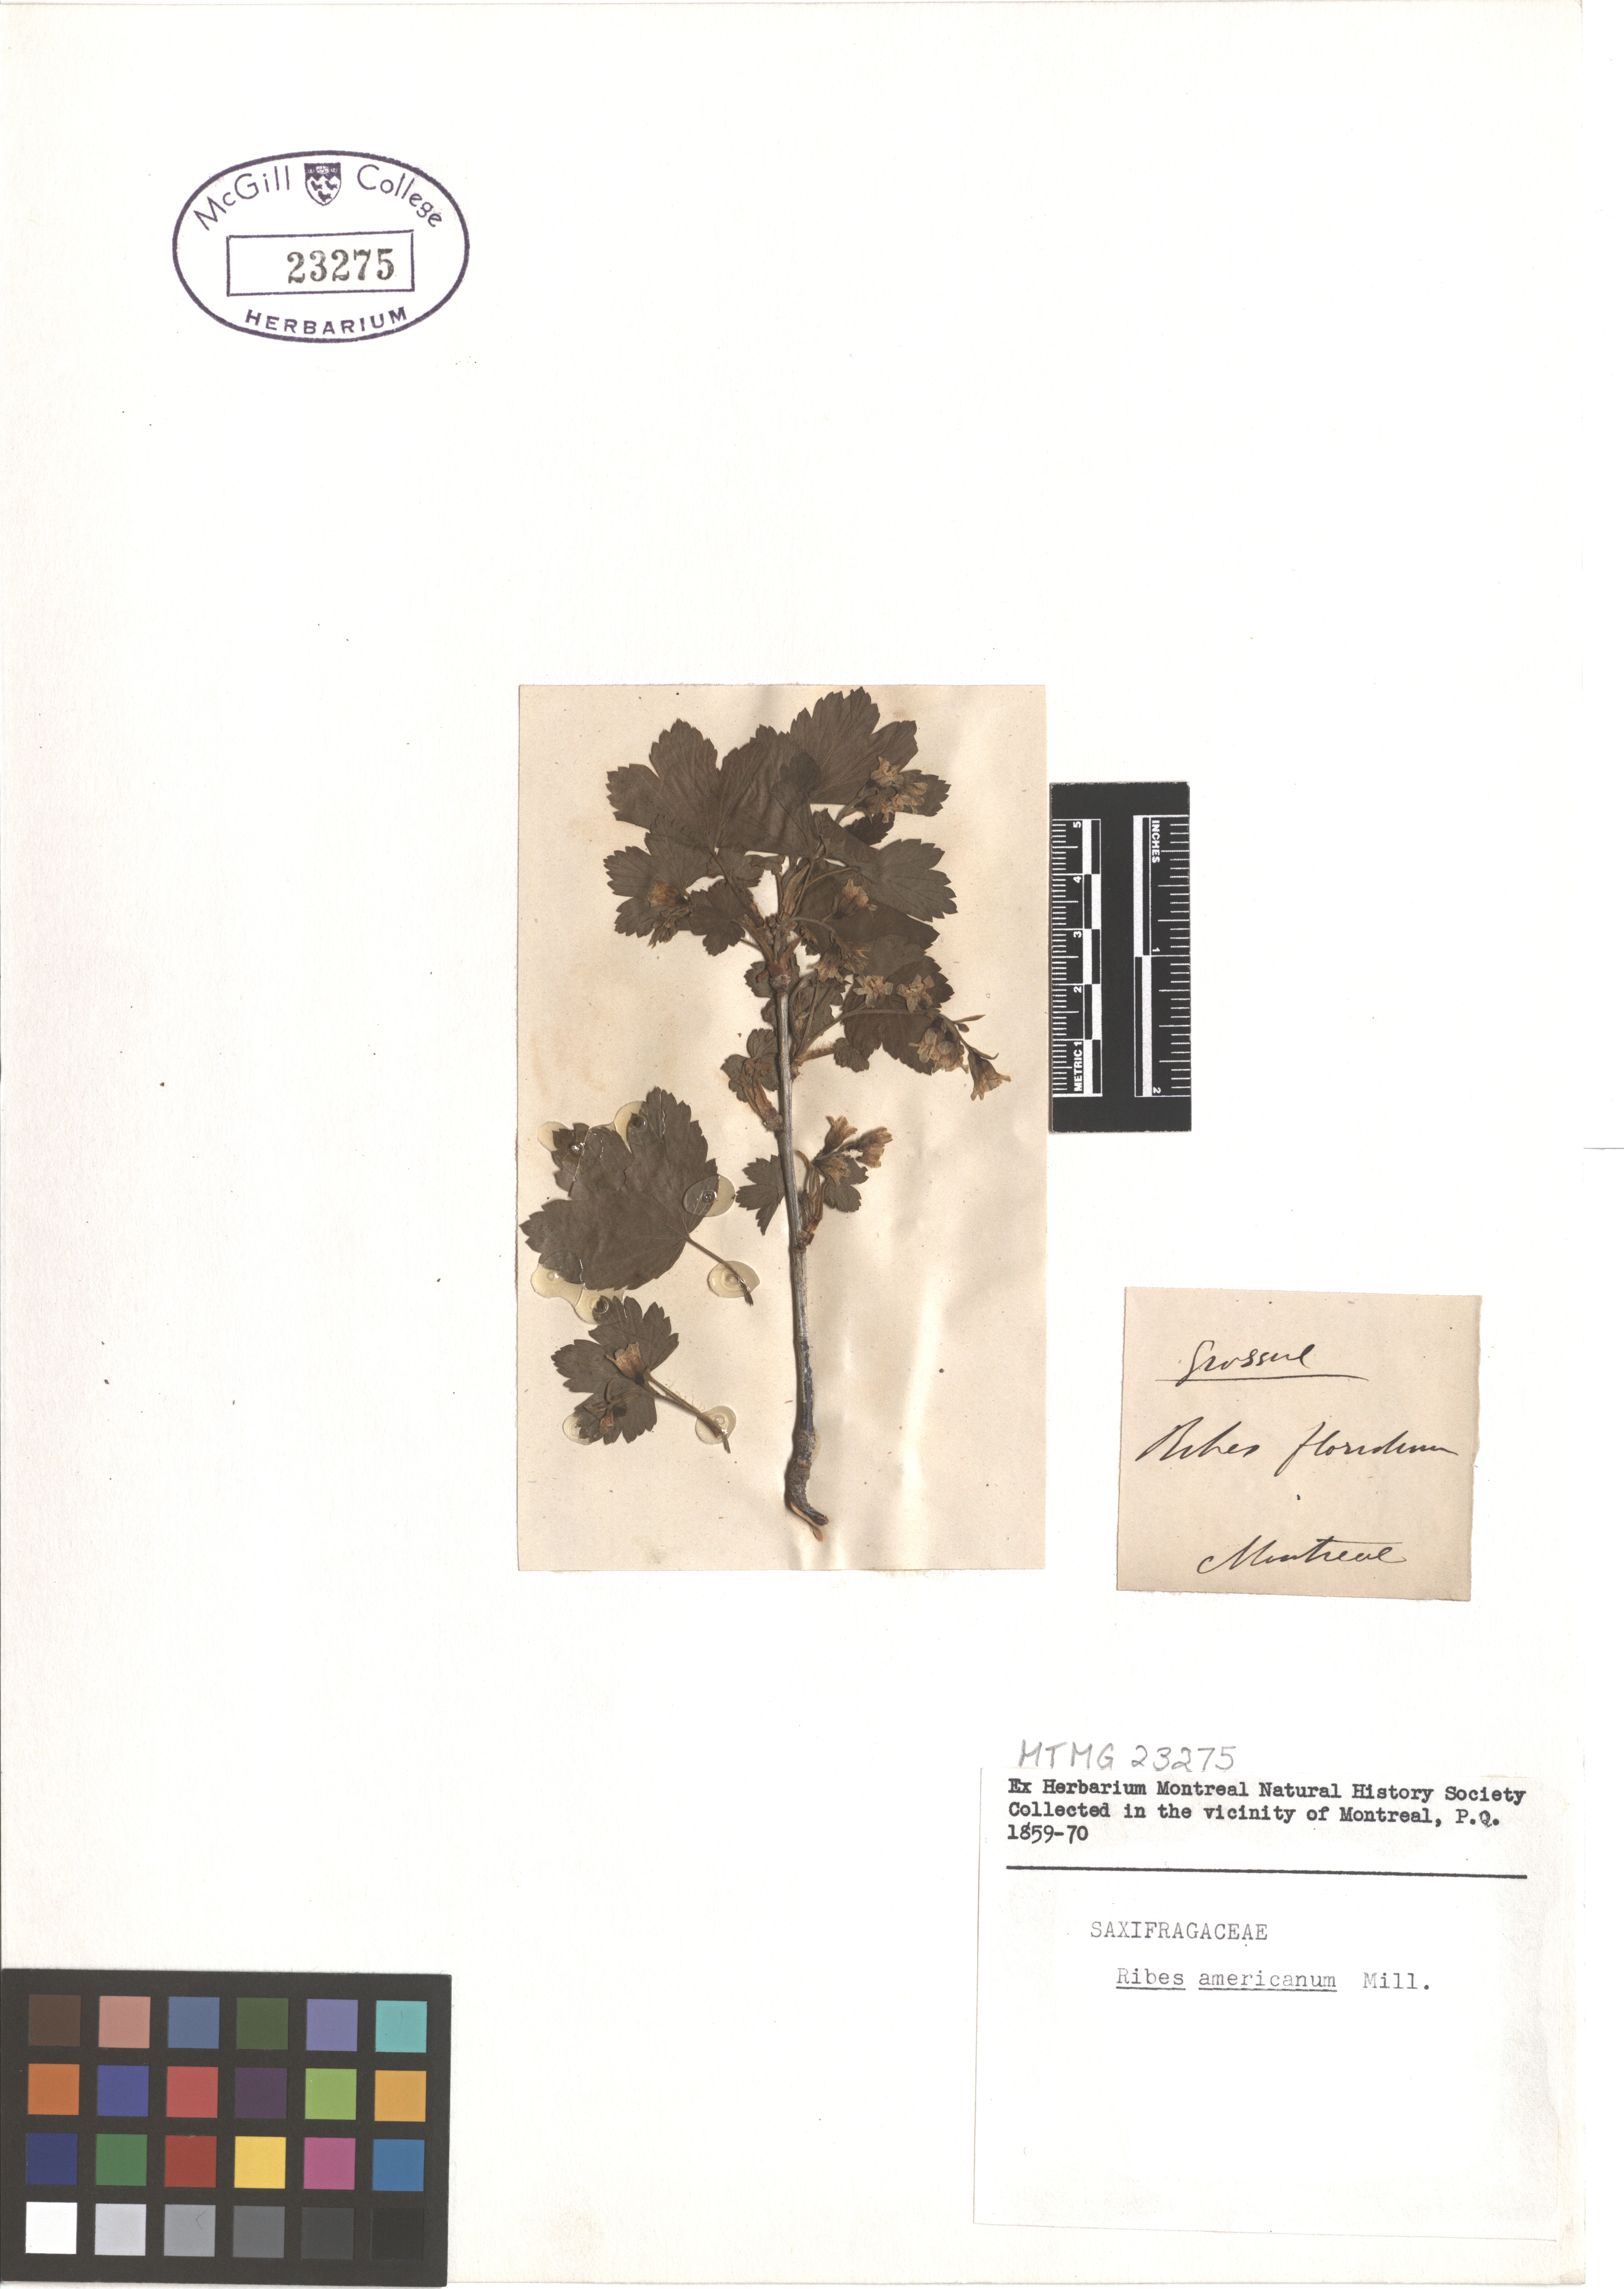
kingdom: Plantae
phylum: Tracheophyta
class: Magnoliopsida
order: Saxifragales
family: Grossulariaceae
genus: Ribes
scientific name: Ribes americanum
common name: American black currant
